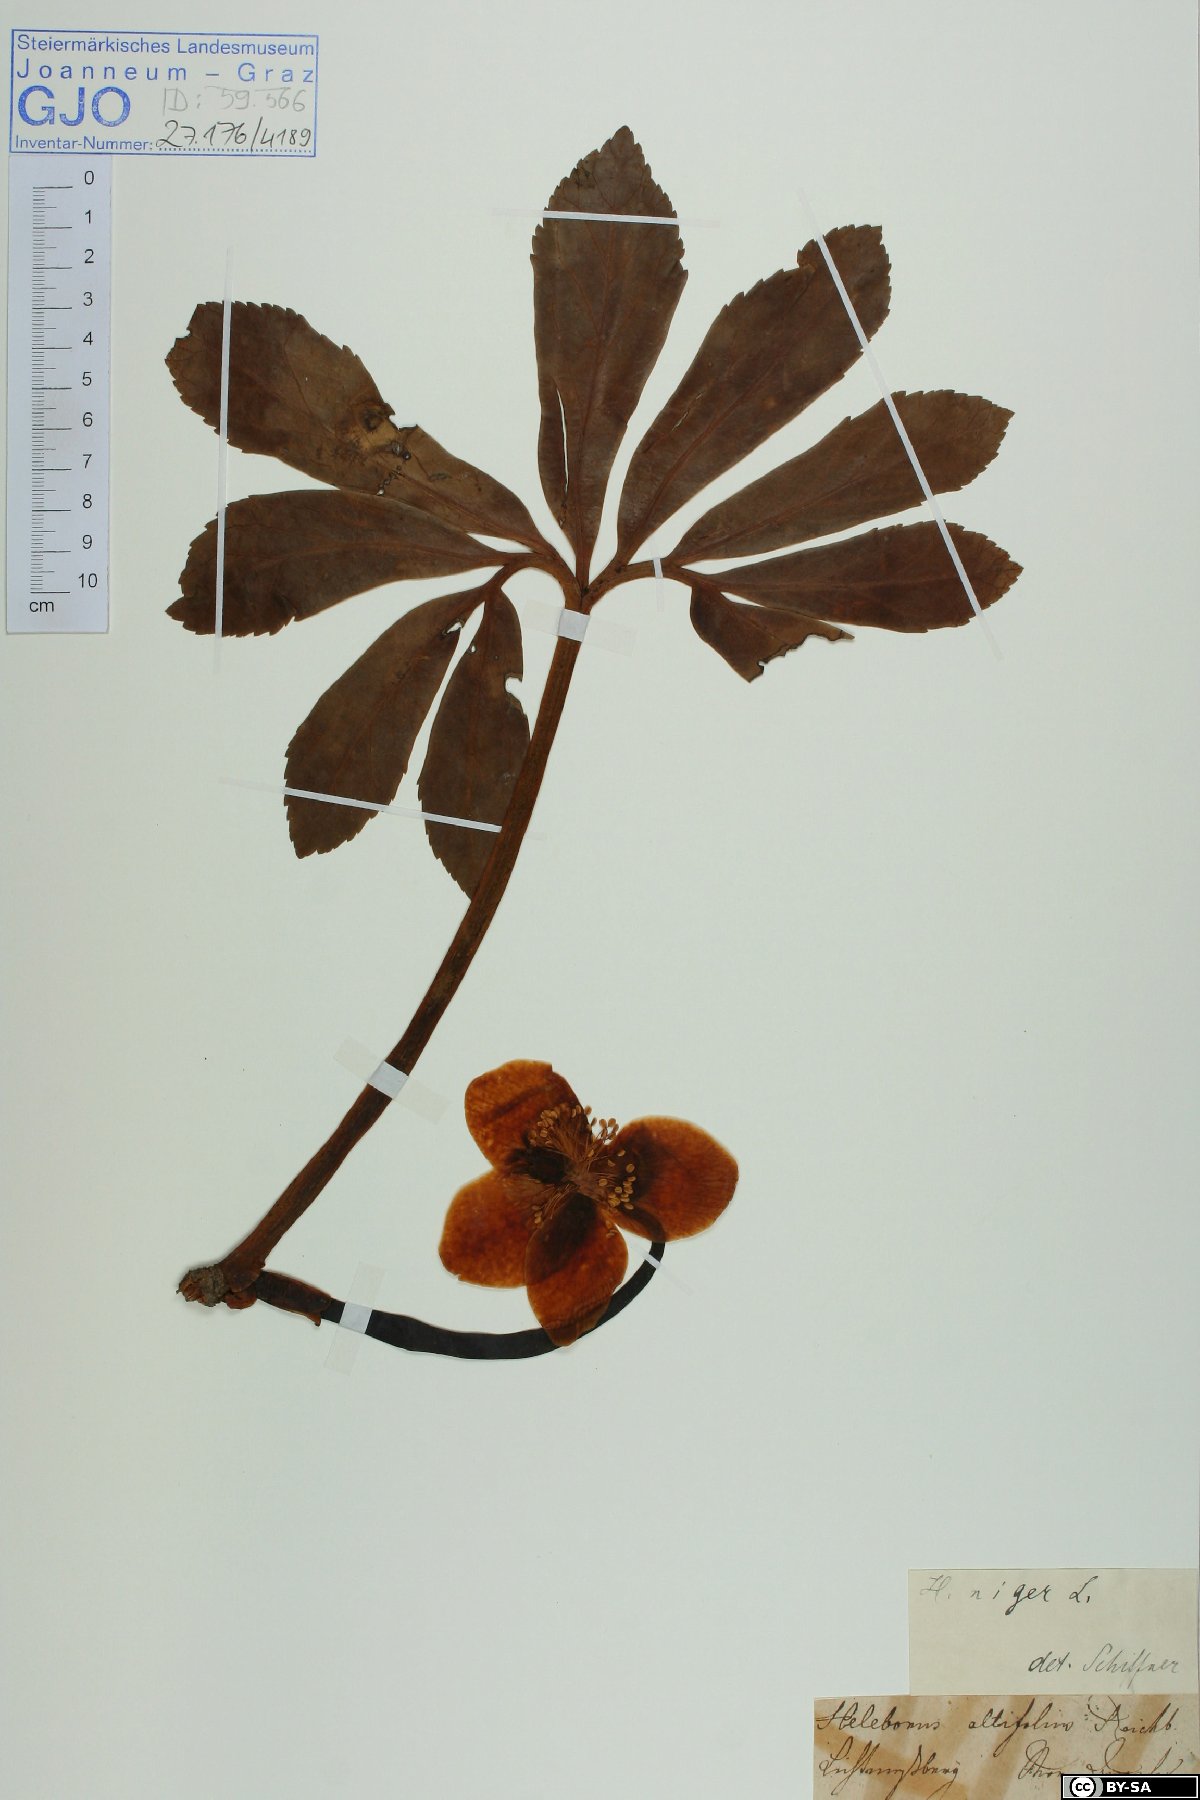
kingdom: Plantae
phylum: Tracheophyta
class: Magnoliopsida
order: Ranunculales
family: Ranunculaceae
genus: Helleborus
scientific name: Helleborus niger
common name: Black hellebore
